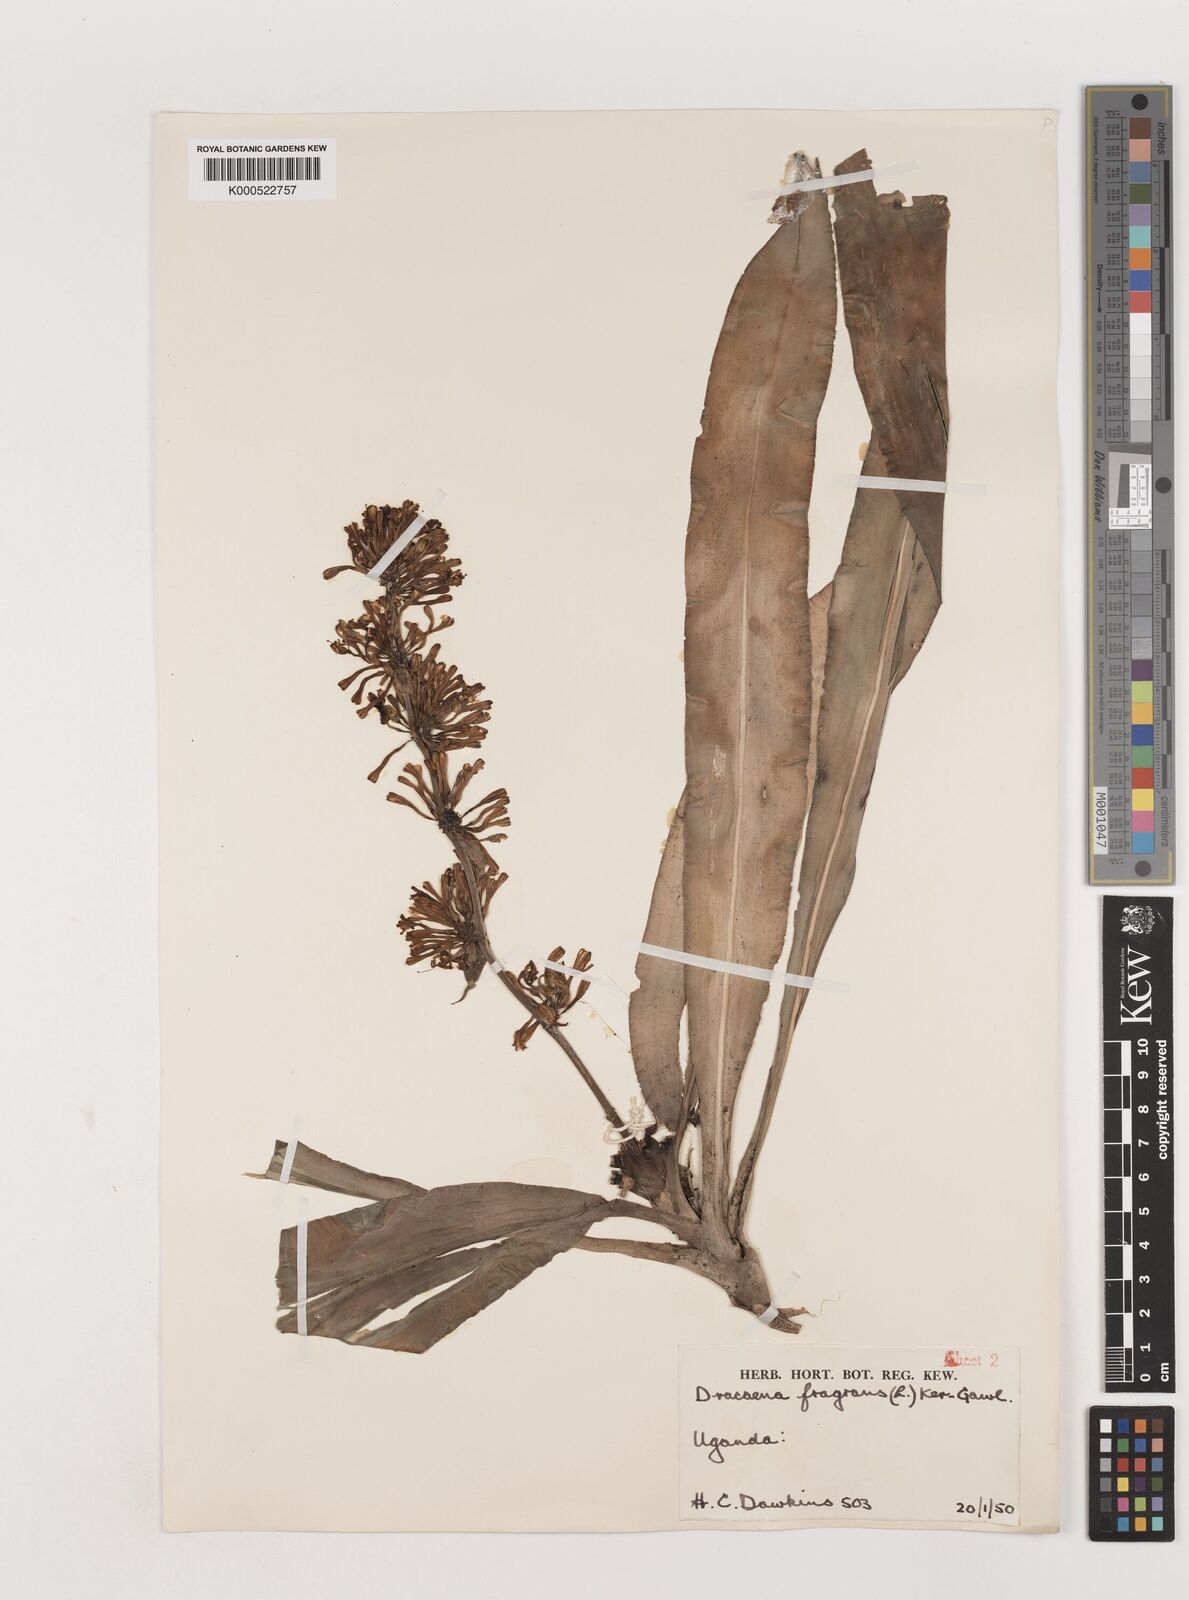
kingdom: Plantae
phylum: Tracheophyta
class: Liliopsida
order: Asparagales
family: Asparagaceae
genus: Dracaena
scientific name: Dracaena fragrans
